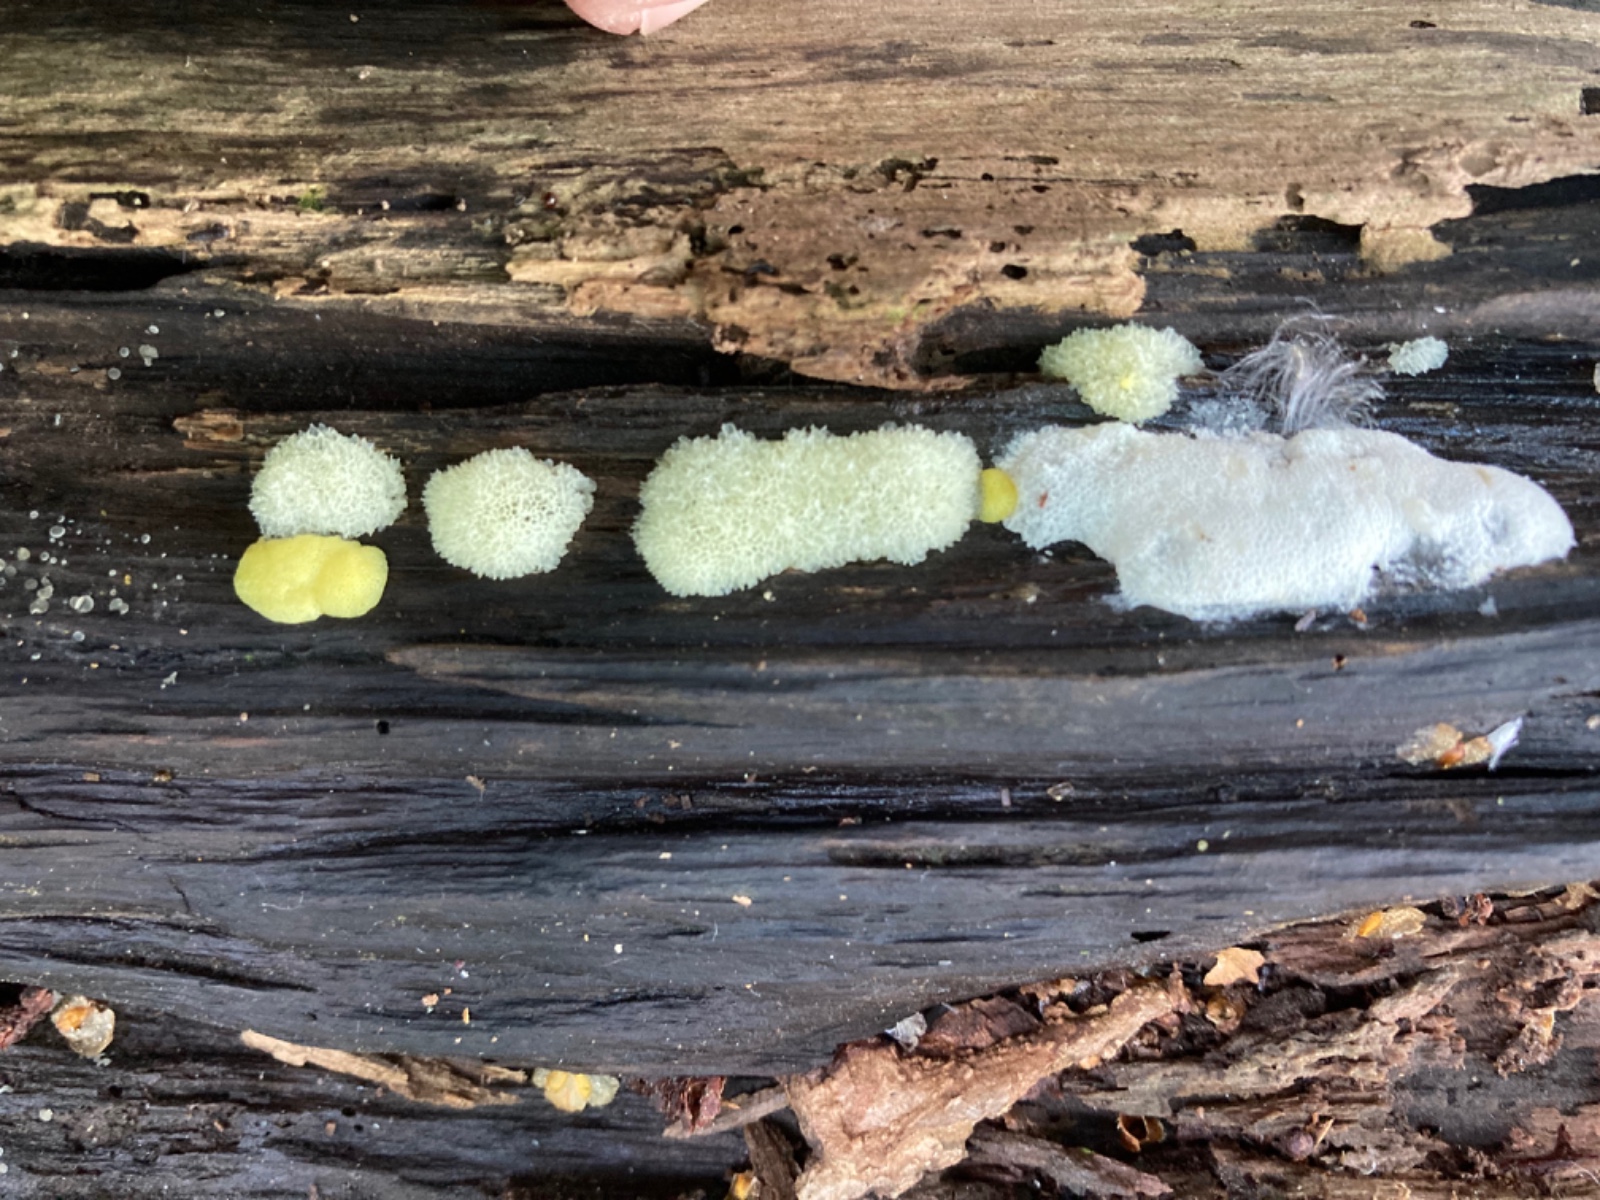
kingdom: Protozoa
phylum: Mycetozoa
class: Protosteliomycetes
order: Ceratiomyxales
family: Ceratiomyxaceae
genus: Ceratiomyxa
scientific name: Ceratiomyxa fruticulosa
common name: Honeycomb coral slime mold
